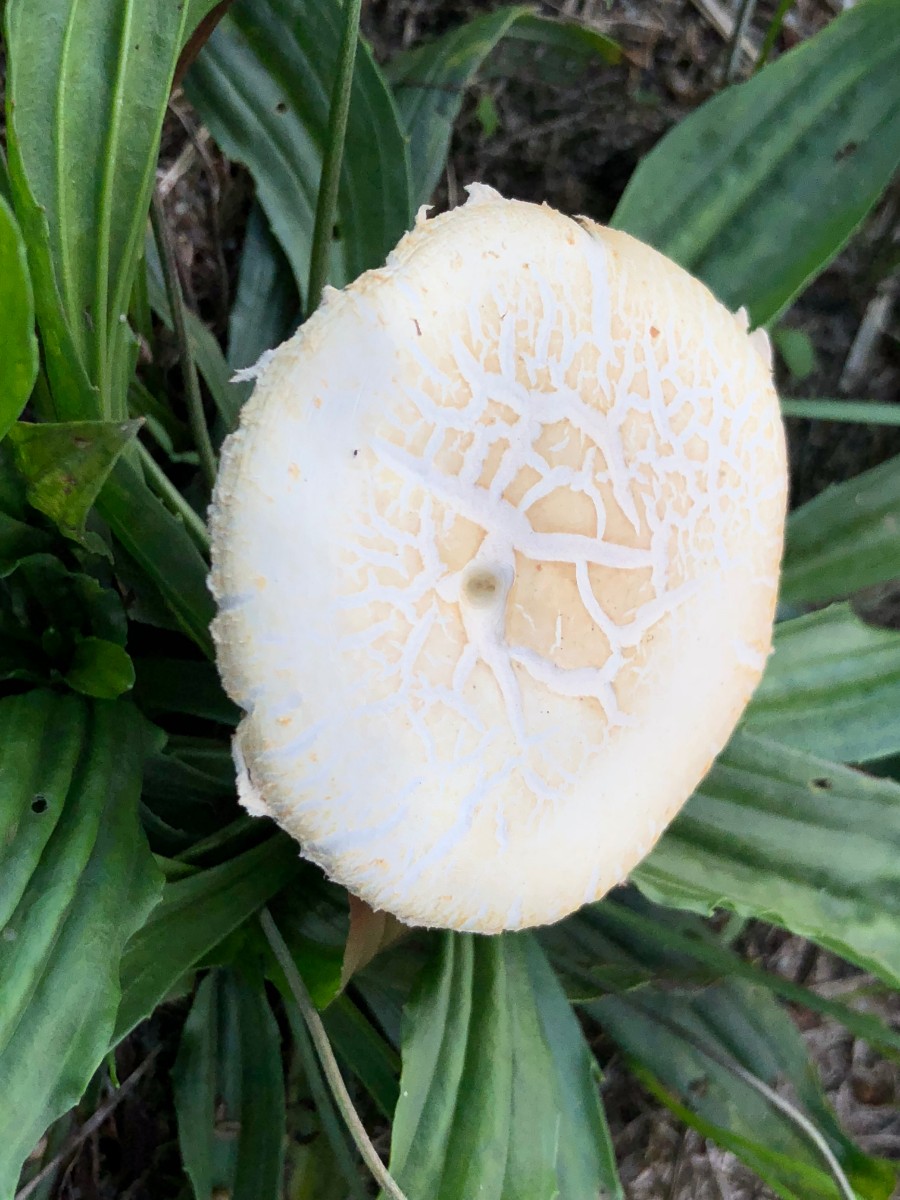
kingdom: Fungi
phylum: Basidiomycota
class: Agaricomycetes
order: Agaricales
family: Strophariaceae
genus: Agrocybe
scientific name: Agrocybe dura
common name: fastkødet agerhat
